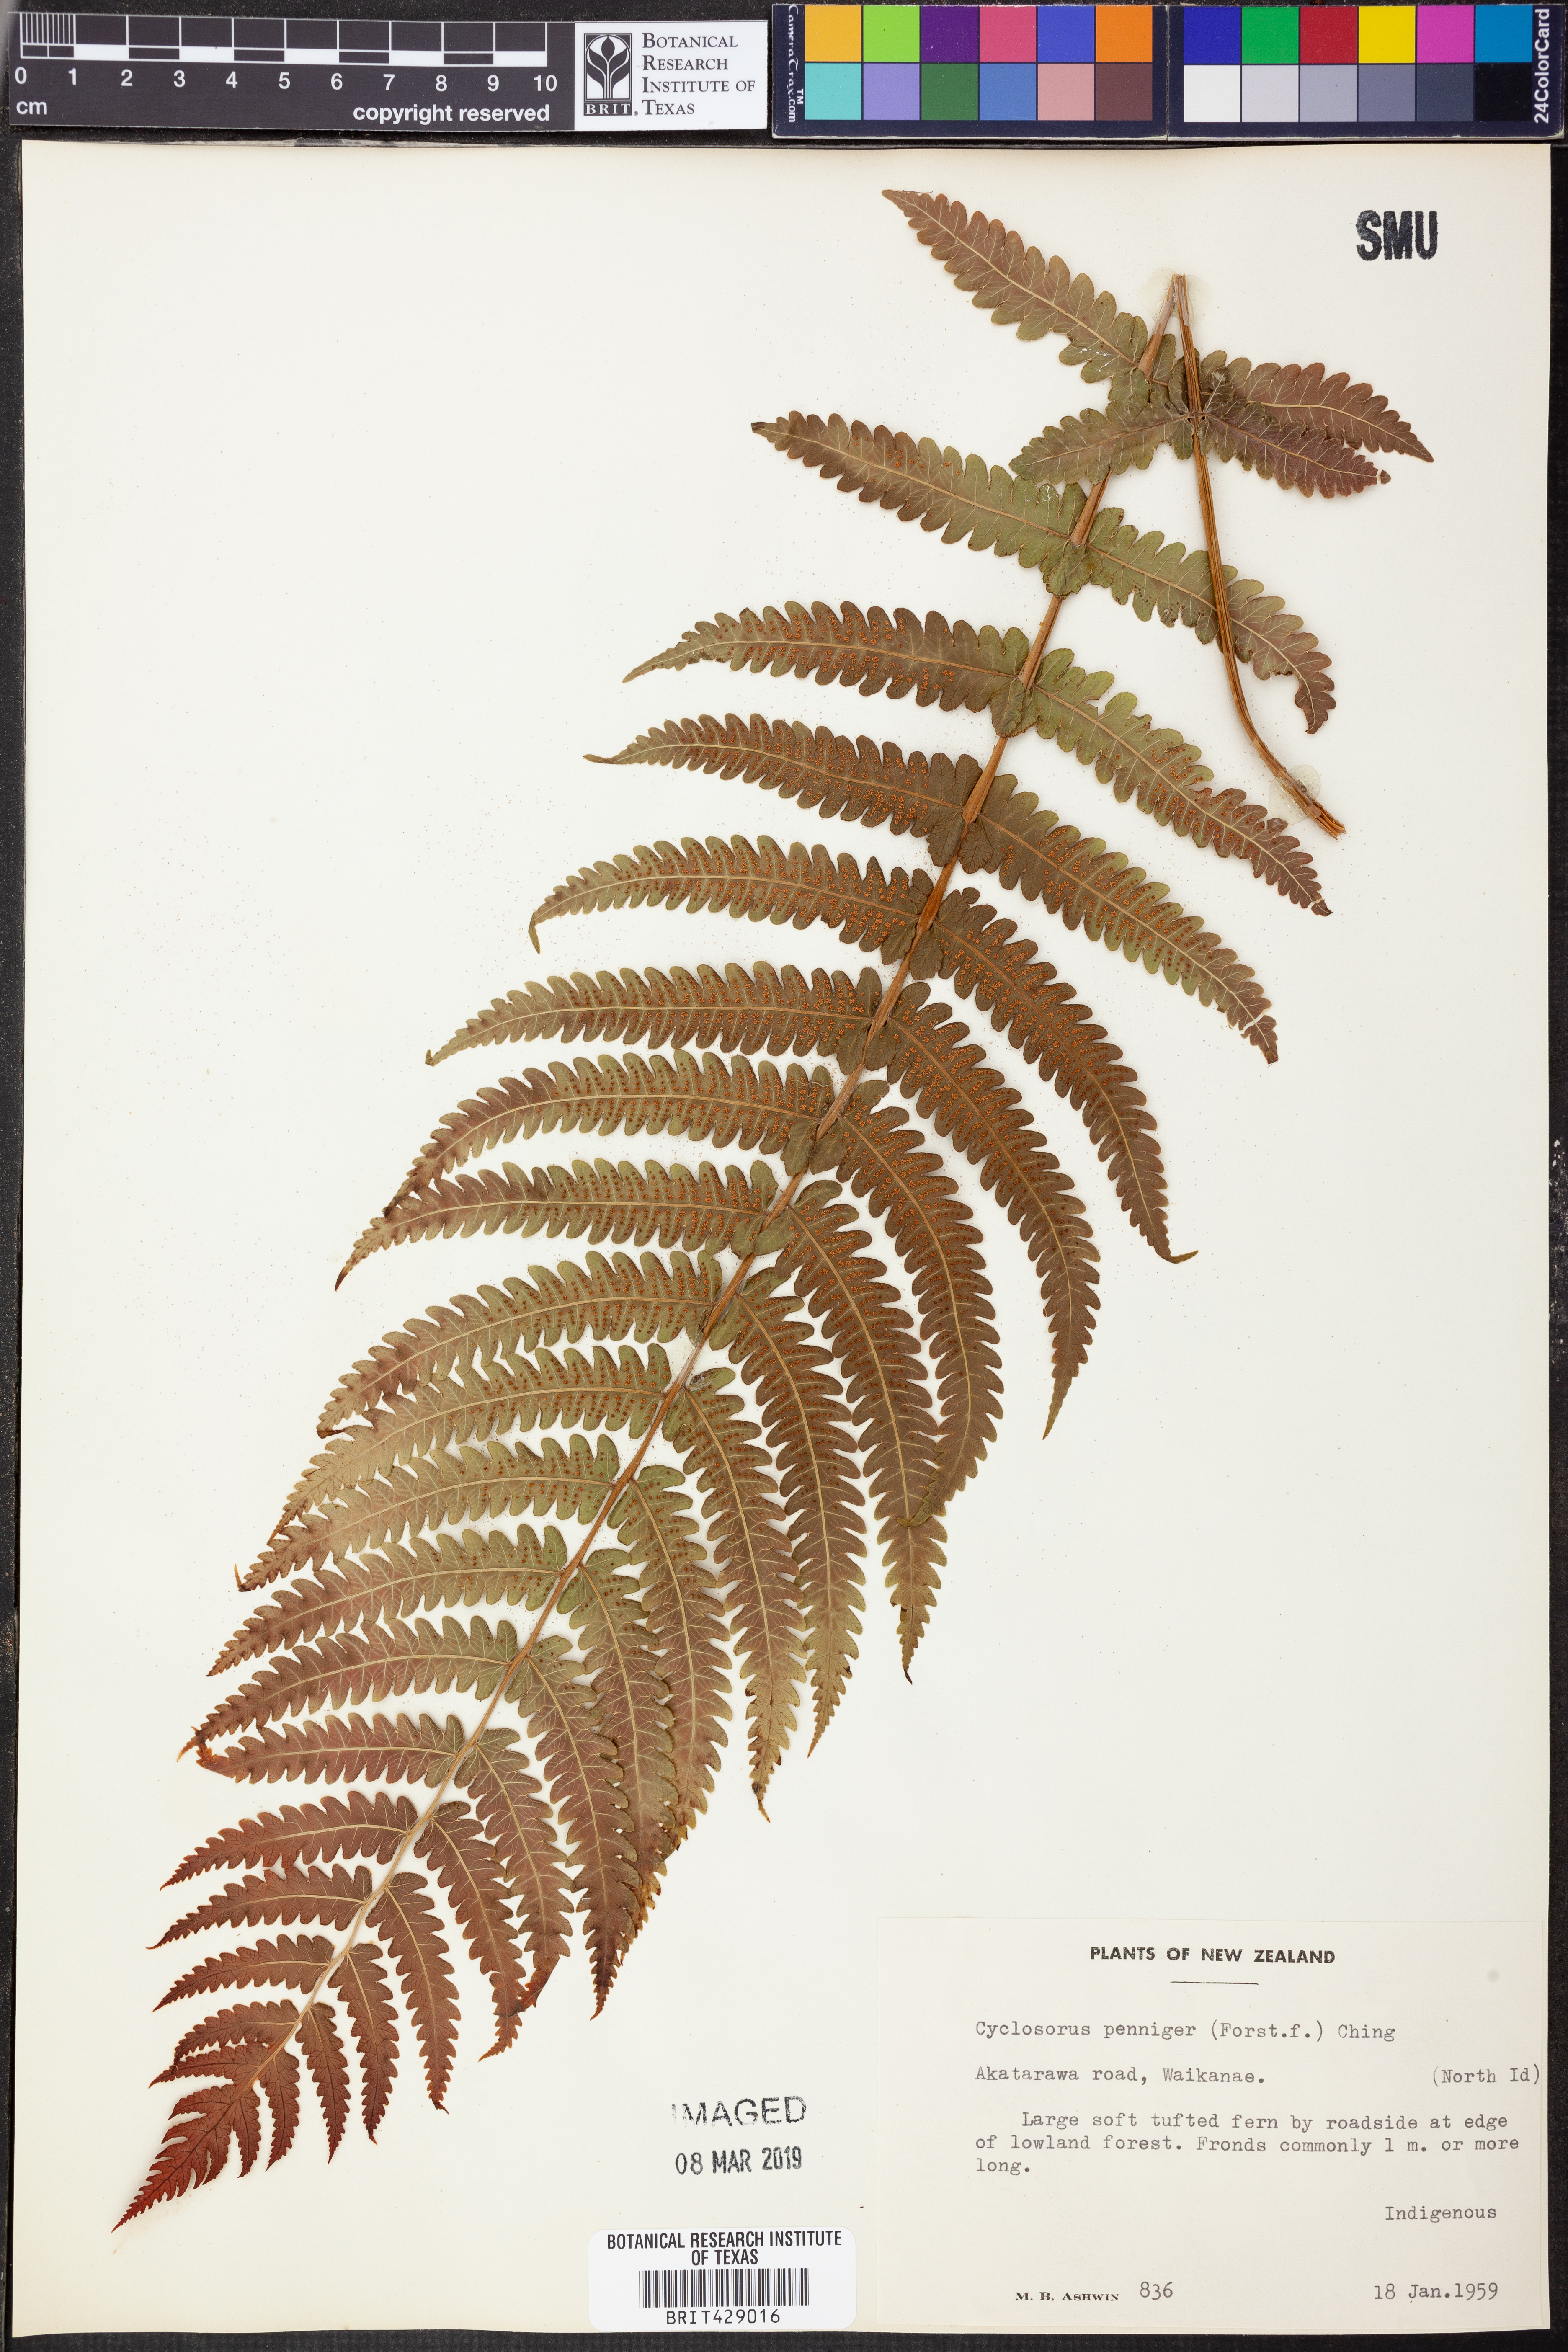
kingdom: Plantae
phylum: Tracheophyta
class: Polypodiopsida
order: Polypodiales
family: Thelypteridaceae
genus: Pakau
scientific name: Pakau pennigera
